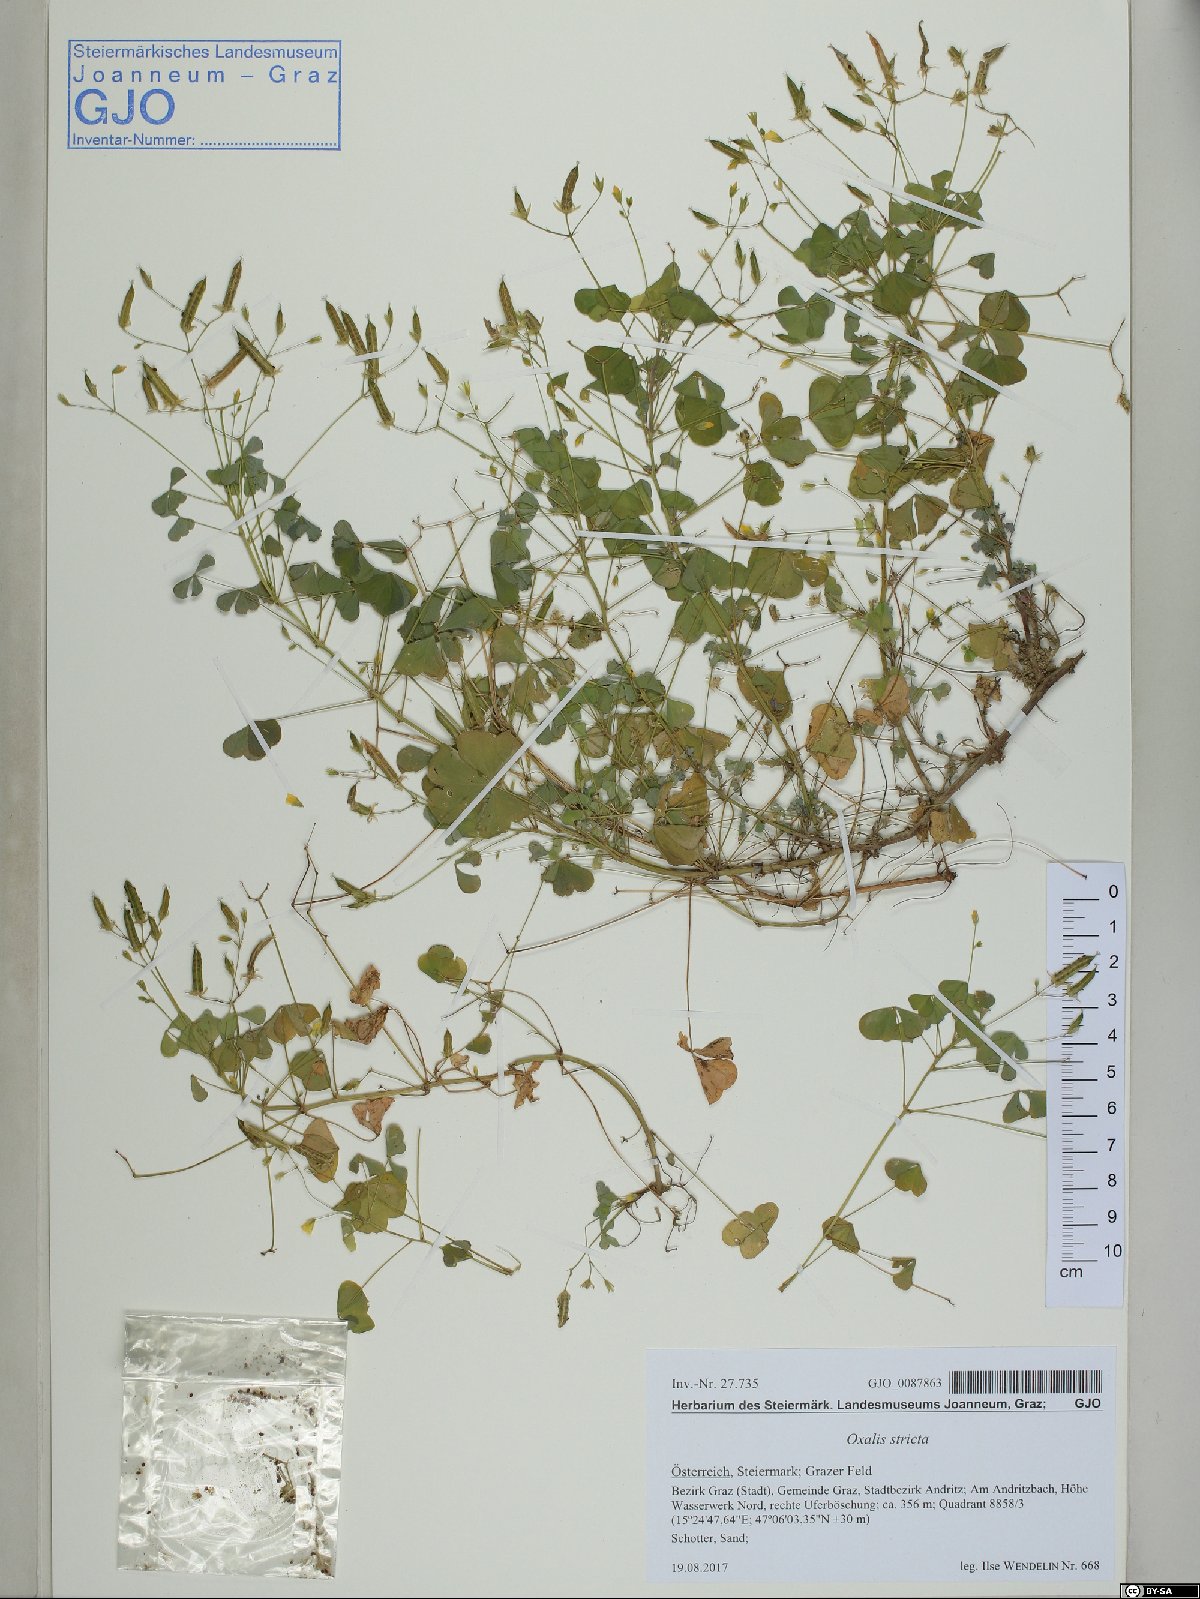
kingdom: Plantae
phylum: Tracheophyta
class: Magnoliopsida
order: Oxalidales
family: Oxalidaceae
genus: Oxalis
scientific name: Oxalis stricta
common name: Upright yellow-sorrel
